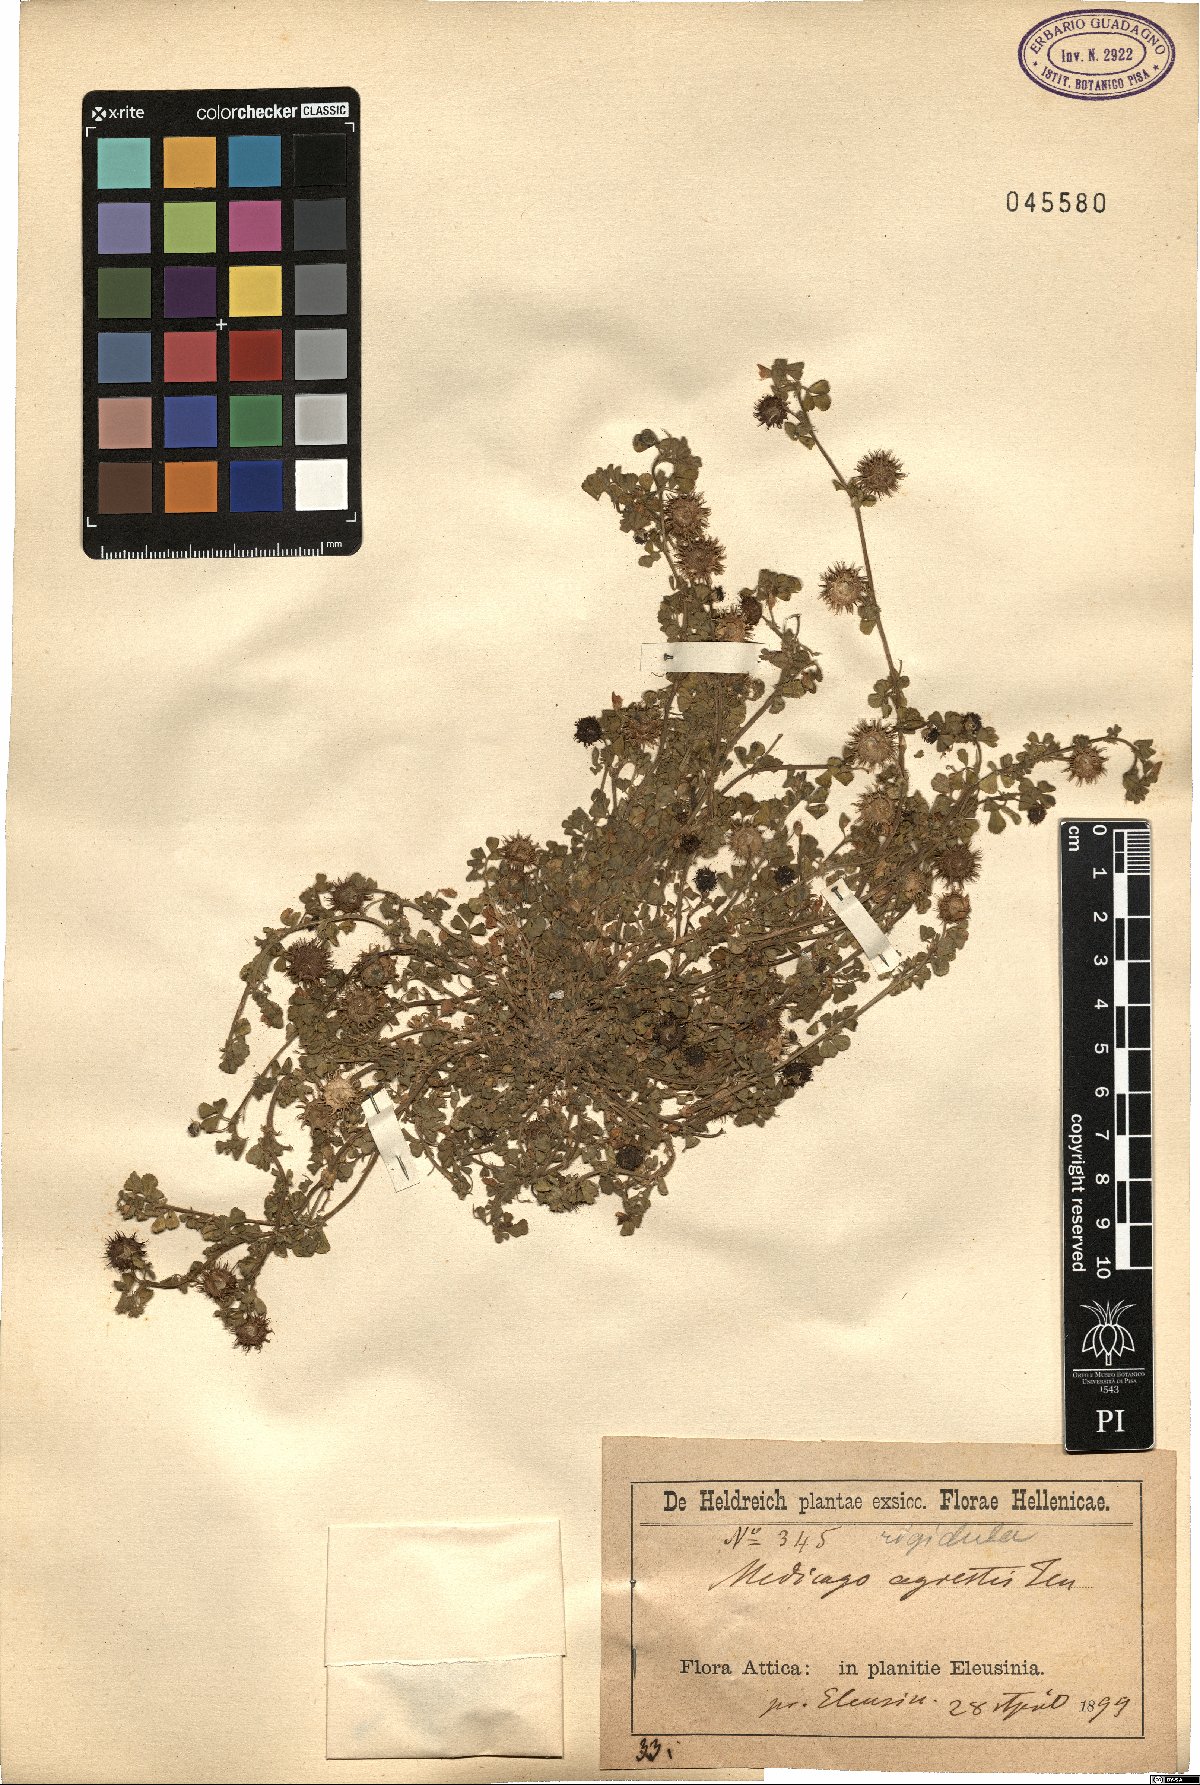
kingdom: Plantae
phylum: Tracheophyta
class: Magnoliopsida
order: Fabales
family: Fabaceae
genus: Medicago
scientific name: Medicago rigidula
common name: Tifton medic
